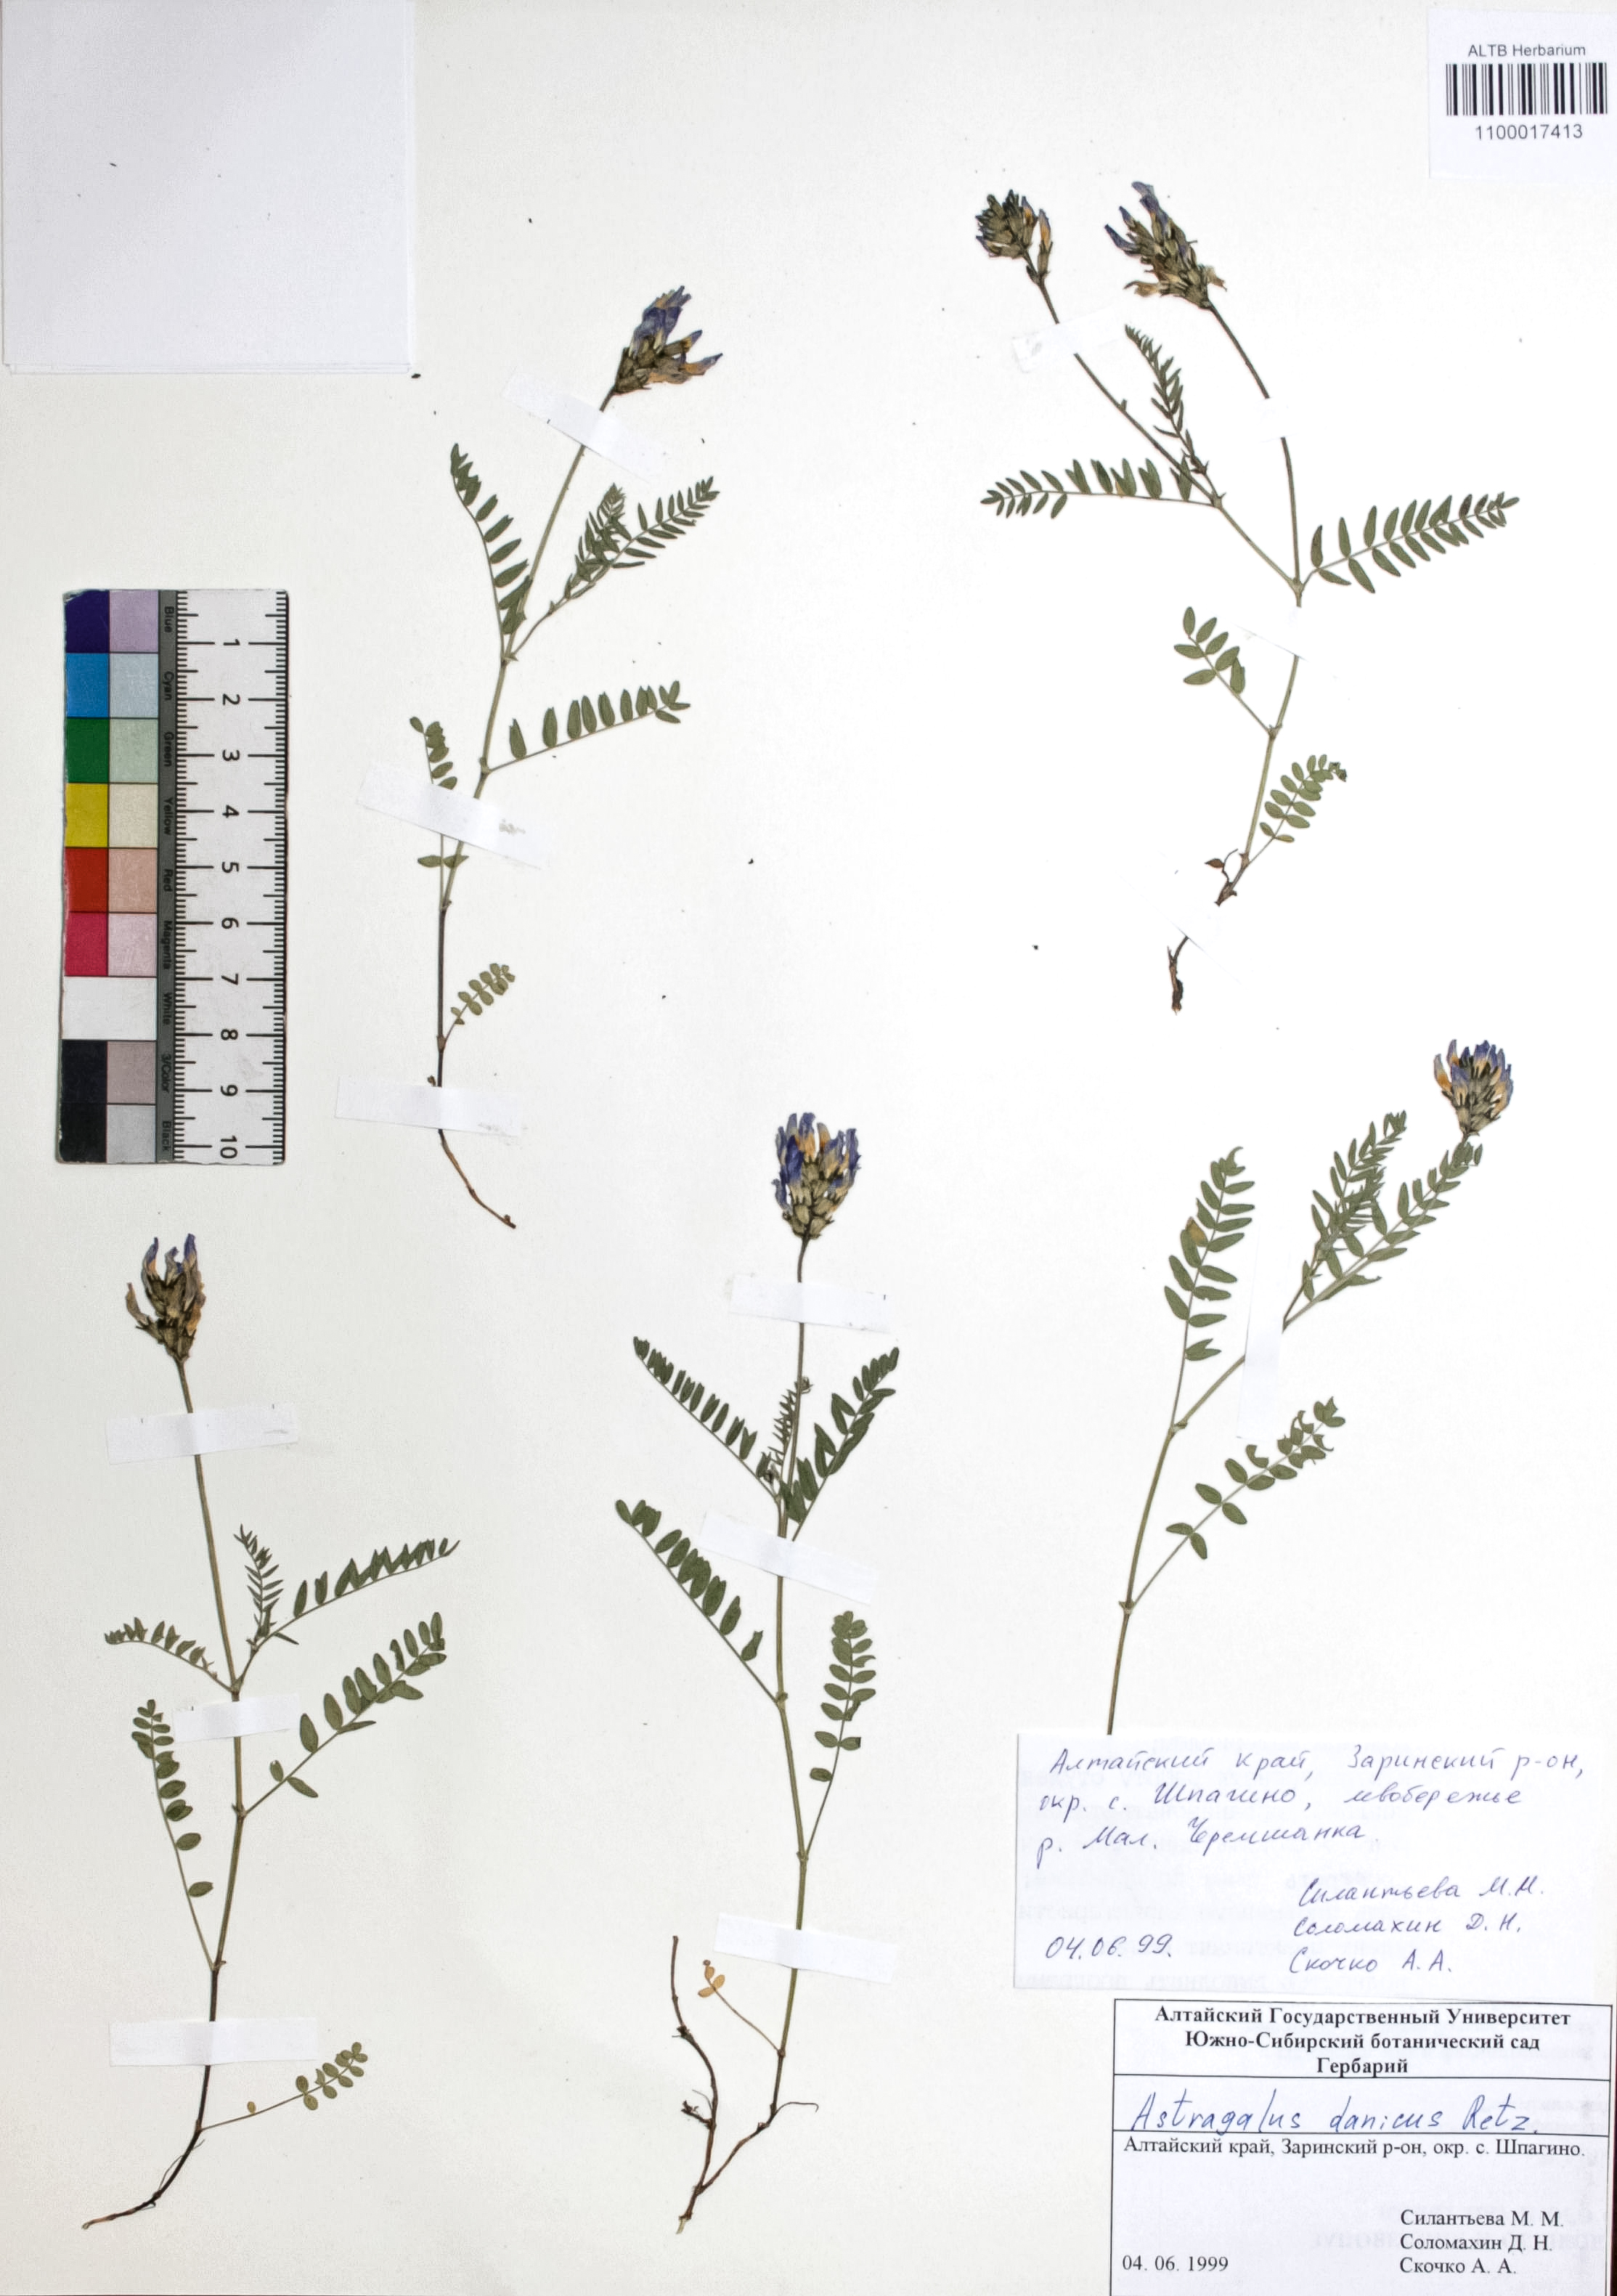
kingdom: Plantae
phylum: Tracheophyta
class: Magnoliopsida
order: Fabales
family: Fabaceae
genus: Astragalus
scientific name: Astragalus danicus
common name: Purple milk-vetch
